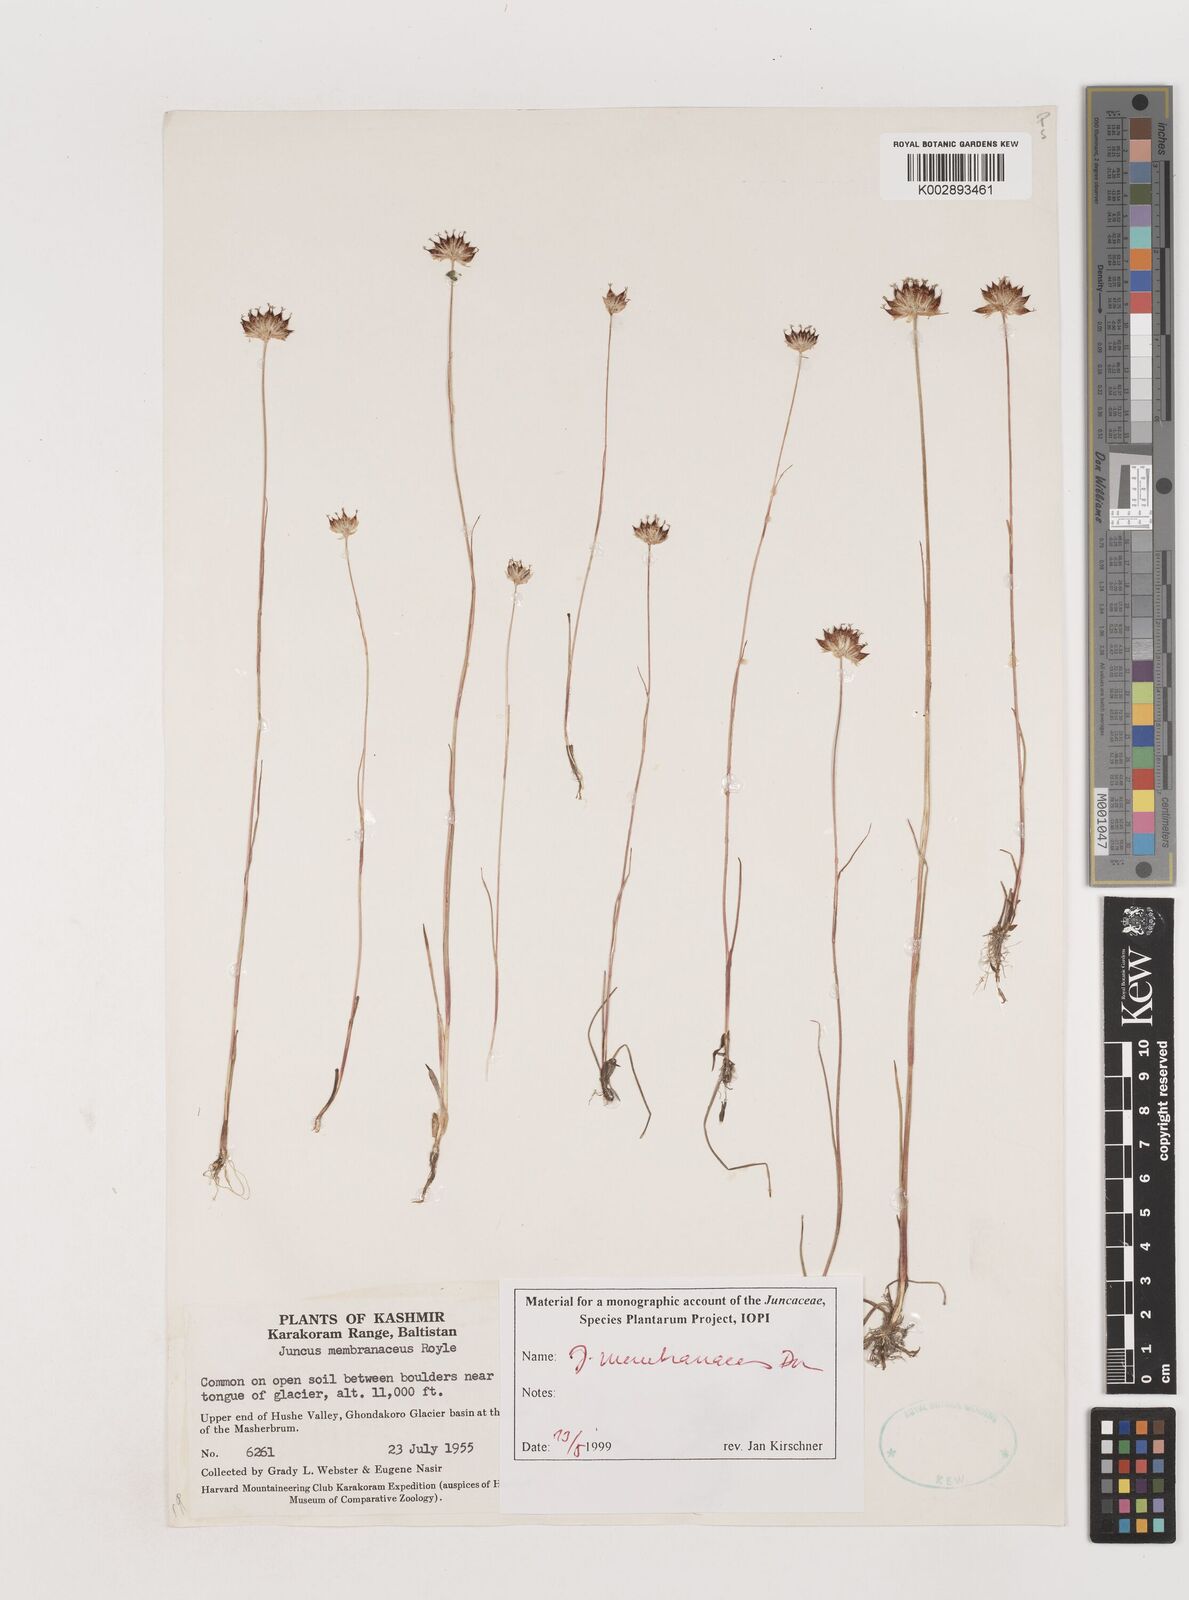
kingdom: Plantae
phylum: Tracheophyta
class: Liliopsida
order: Poales
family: Juncaceae
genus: Juncus
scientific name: Juncus membranaceus
